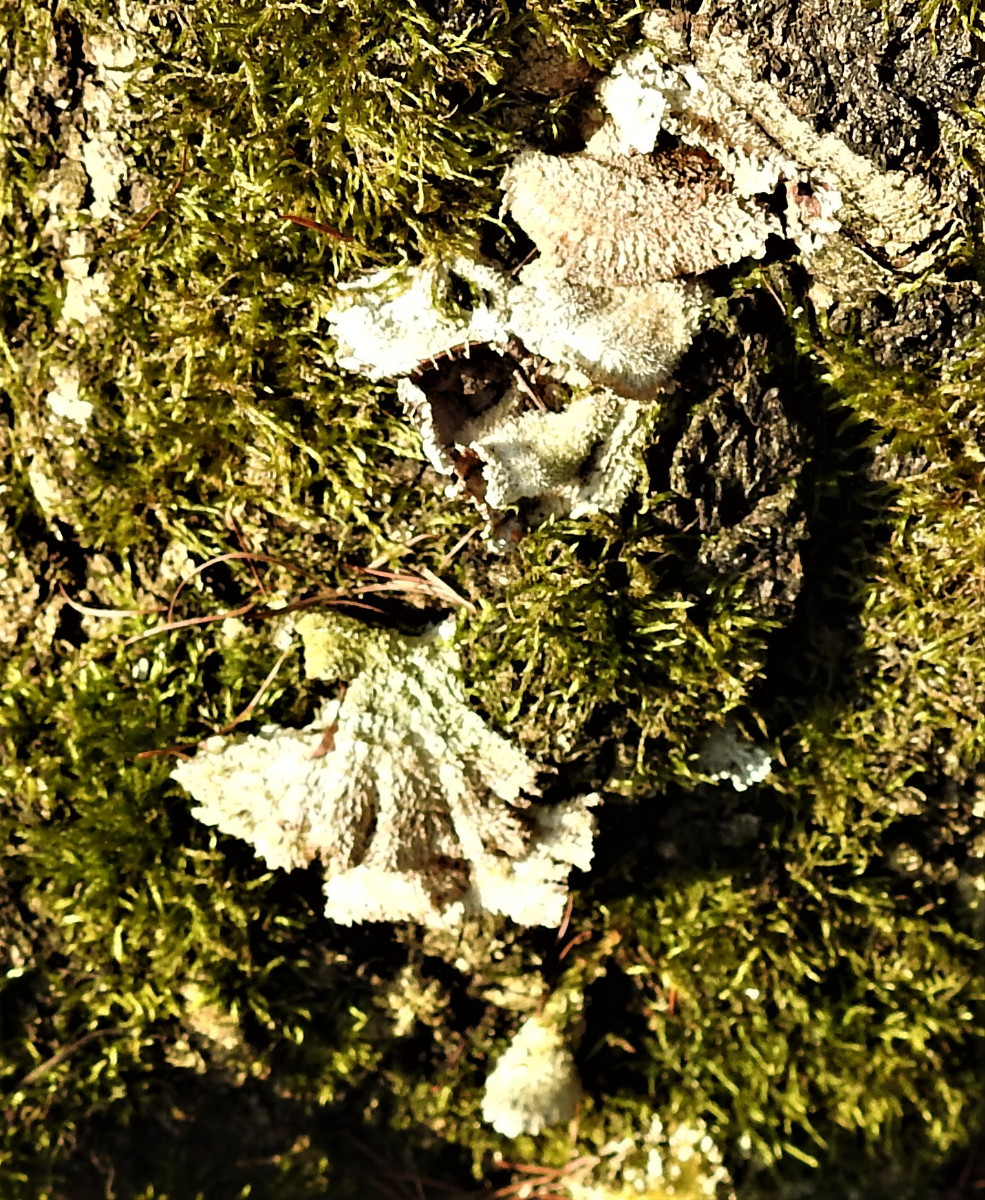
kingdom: Fungi
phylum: Basidiomycota
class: Agaricomycetes
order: Agaricales
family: Schizophyllaceae
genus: Schizophyllum
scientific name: Schizophyllum commune
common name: kløvblad
